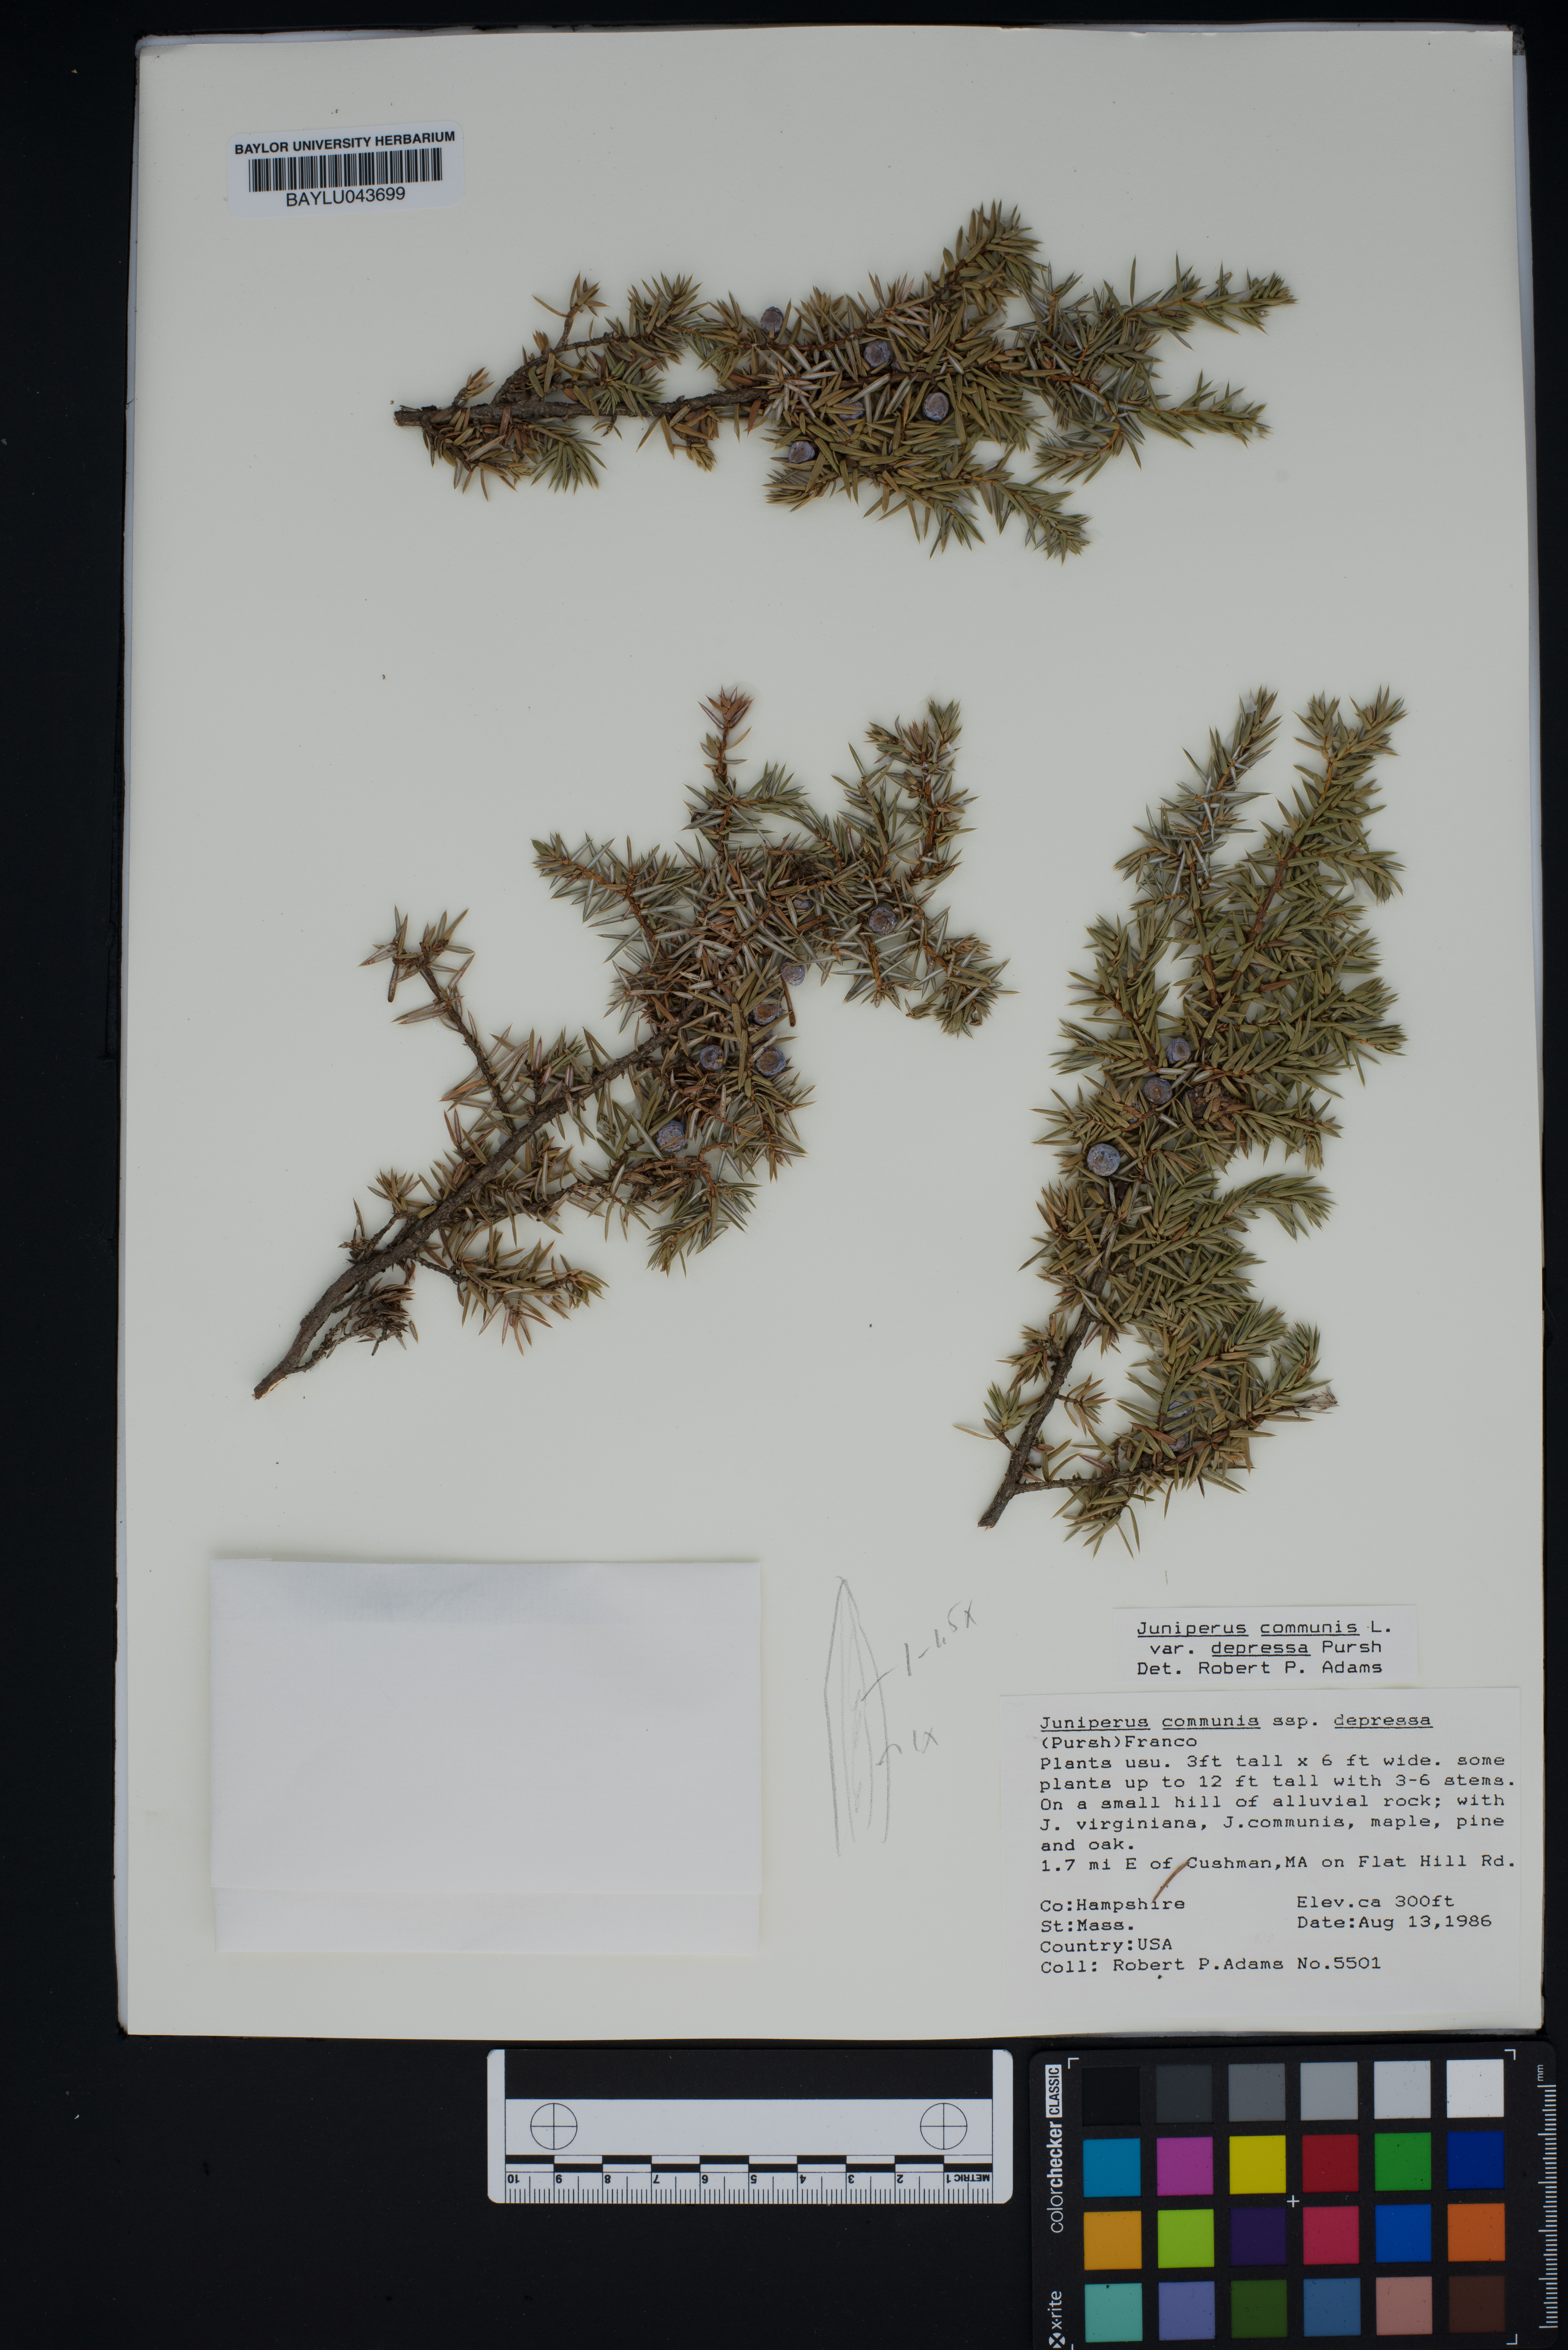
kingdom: Plantae
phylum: Tracheophyta
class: Pinopsida
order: Pinales
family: Cupressaceae
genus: Juniperus
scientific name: Juniperus communis
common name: Common juniper
